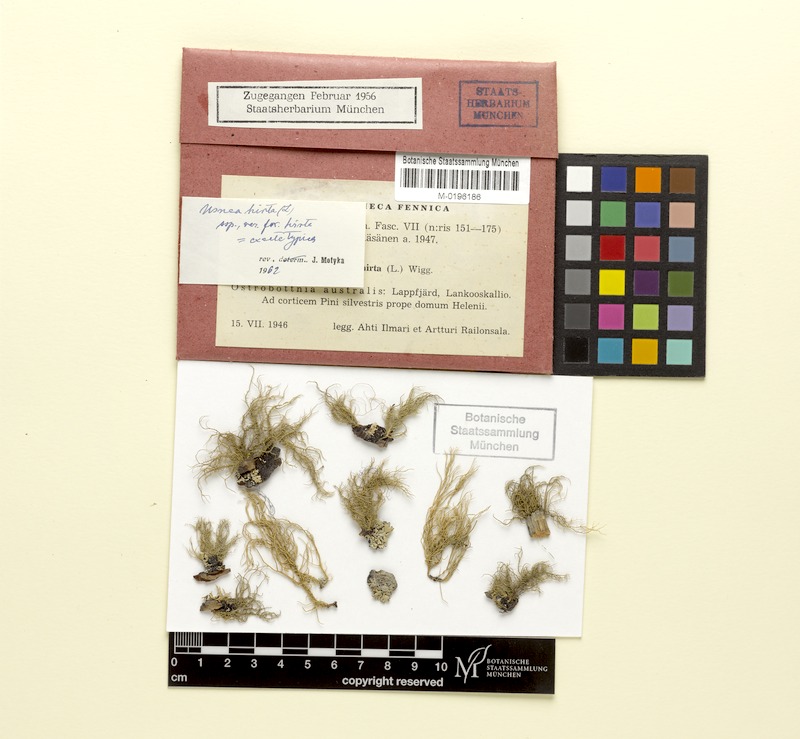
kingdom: Fungi
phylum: Ascomycota
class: Lecanoromycetes
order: Lecanorales
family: Parmeliaceae
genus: Usnea
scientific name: Usnea hirta
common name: Bristly beard lichen
